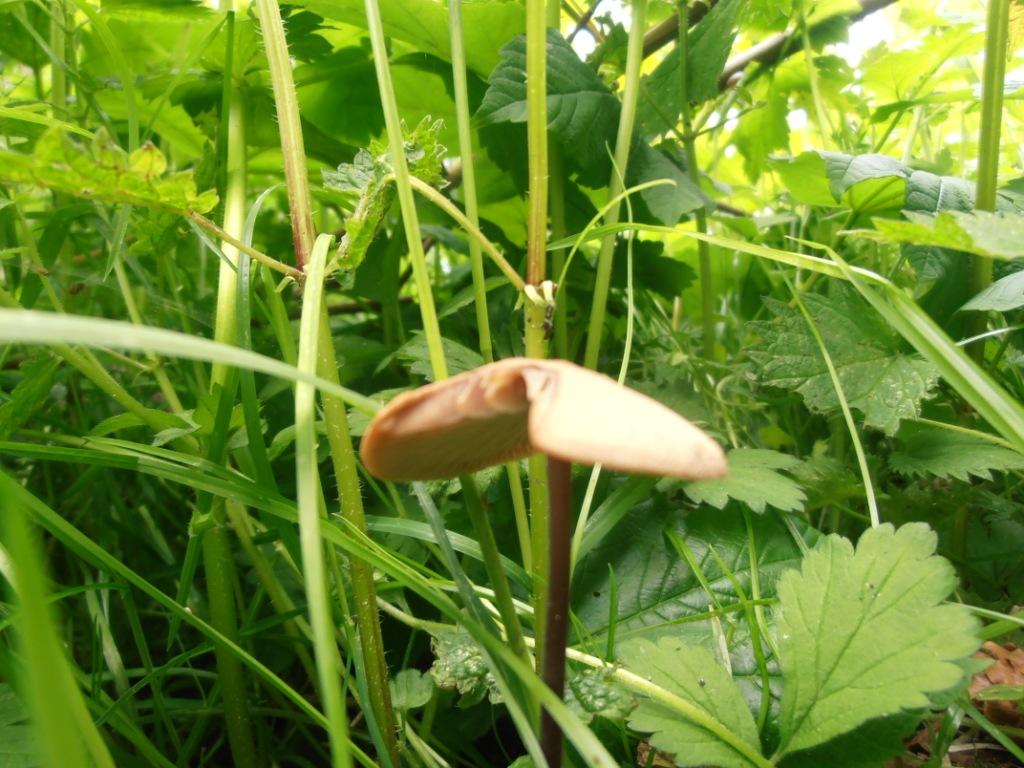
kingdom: Fungi
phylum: Basidiomycota
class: Agaricomycetes
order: Agaricales
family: Omphalotaceae
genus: Mycetinis
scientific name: Mycetinis alliaceus
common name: stor løghat
